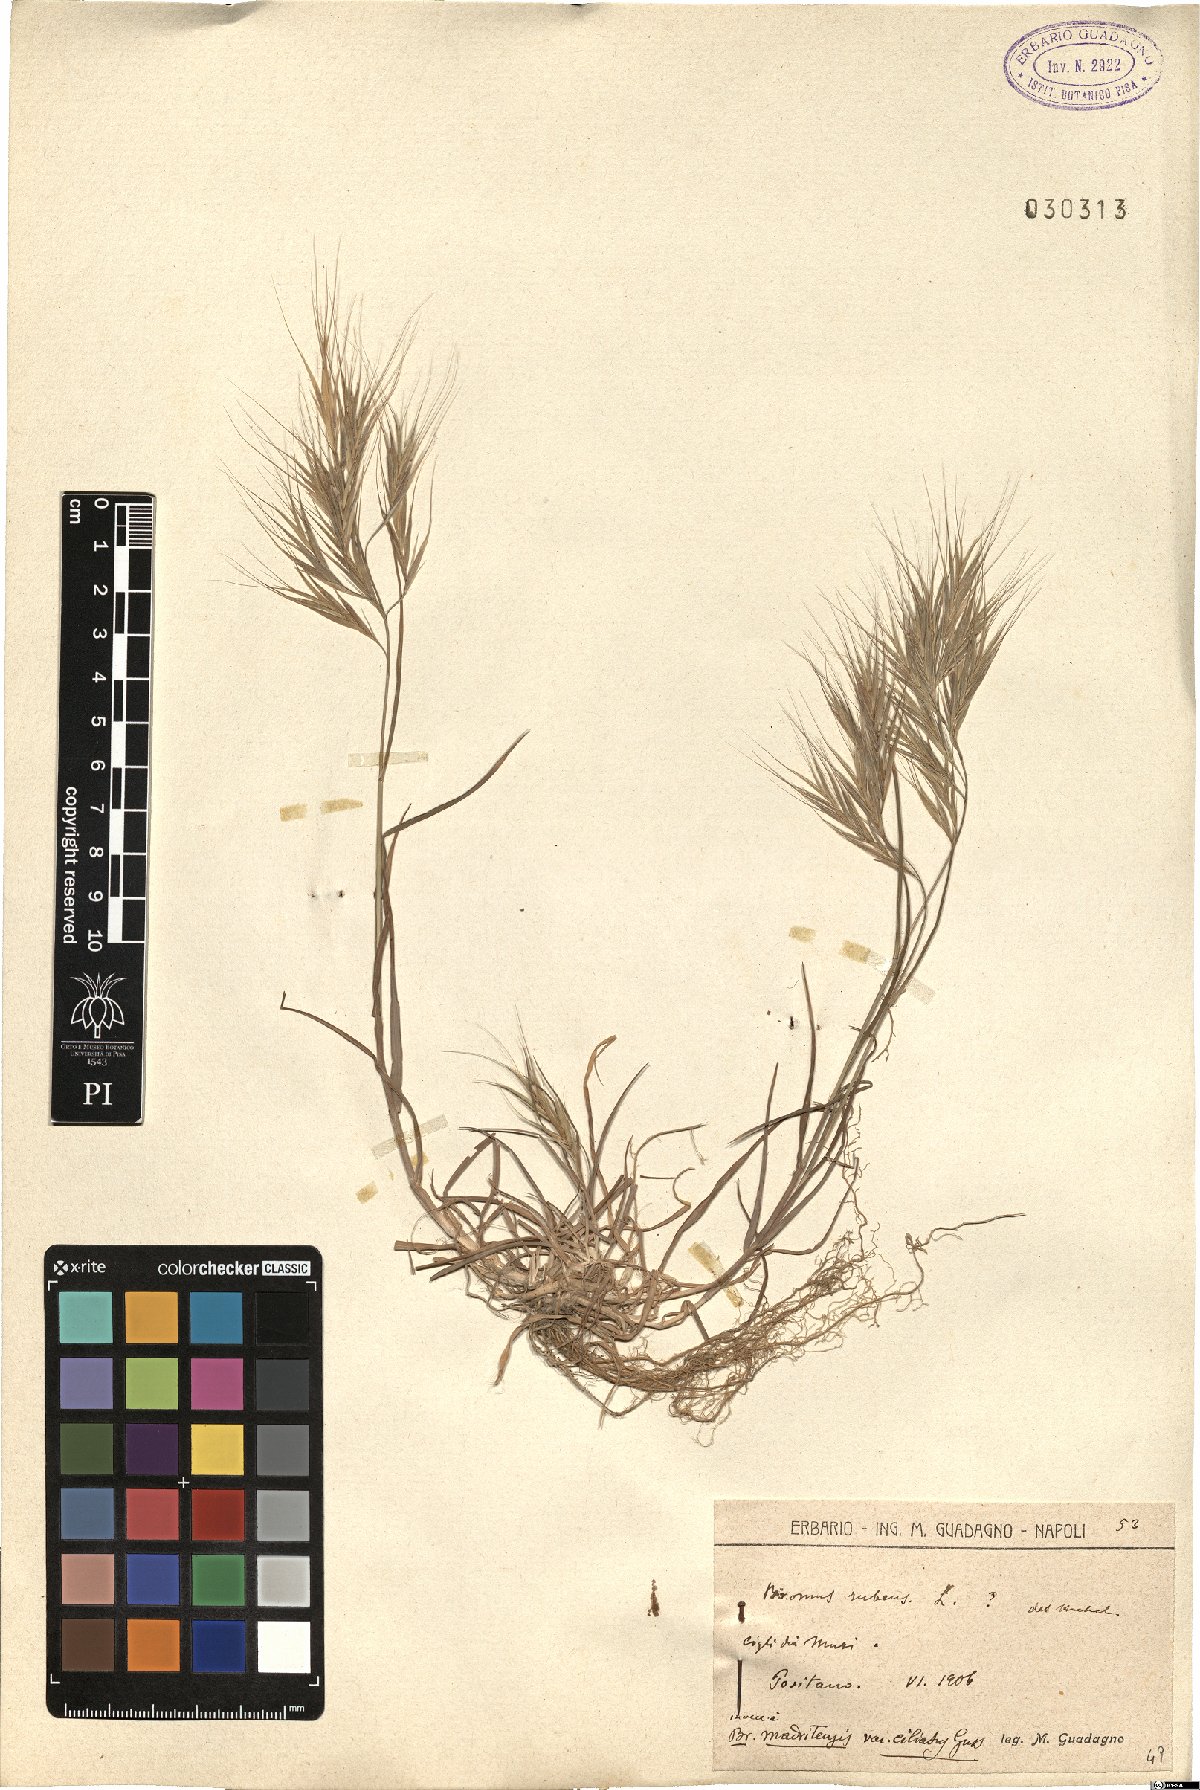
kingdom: Plantae
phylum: Tracheophyta
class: Liliopsida
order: Poales
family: Poaceae
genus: Bromus
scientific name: Bromus madritensis
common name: Compact brome
